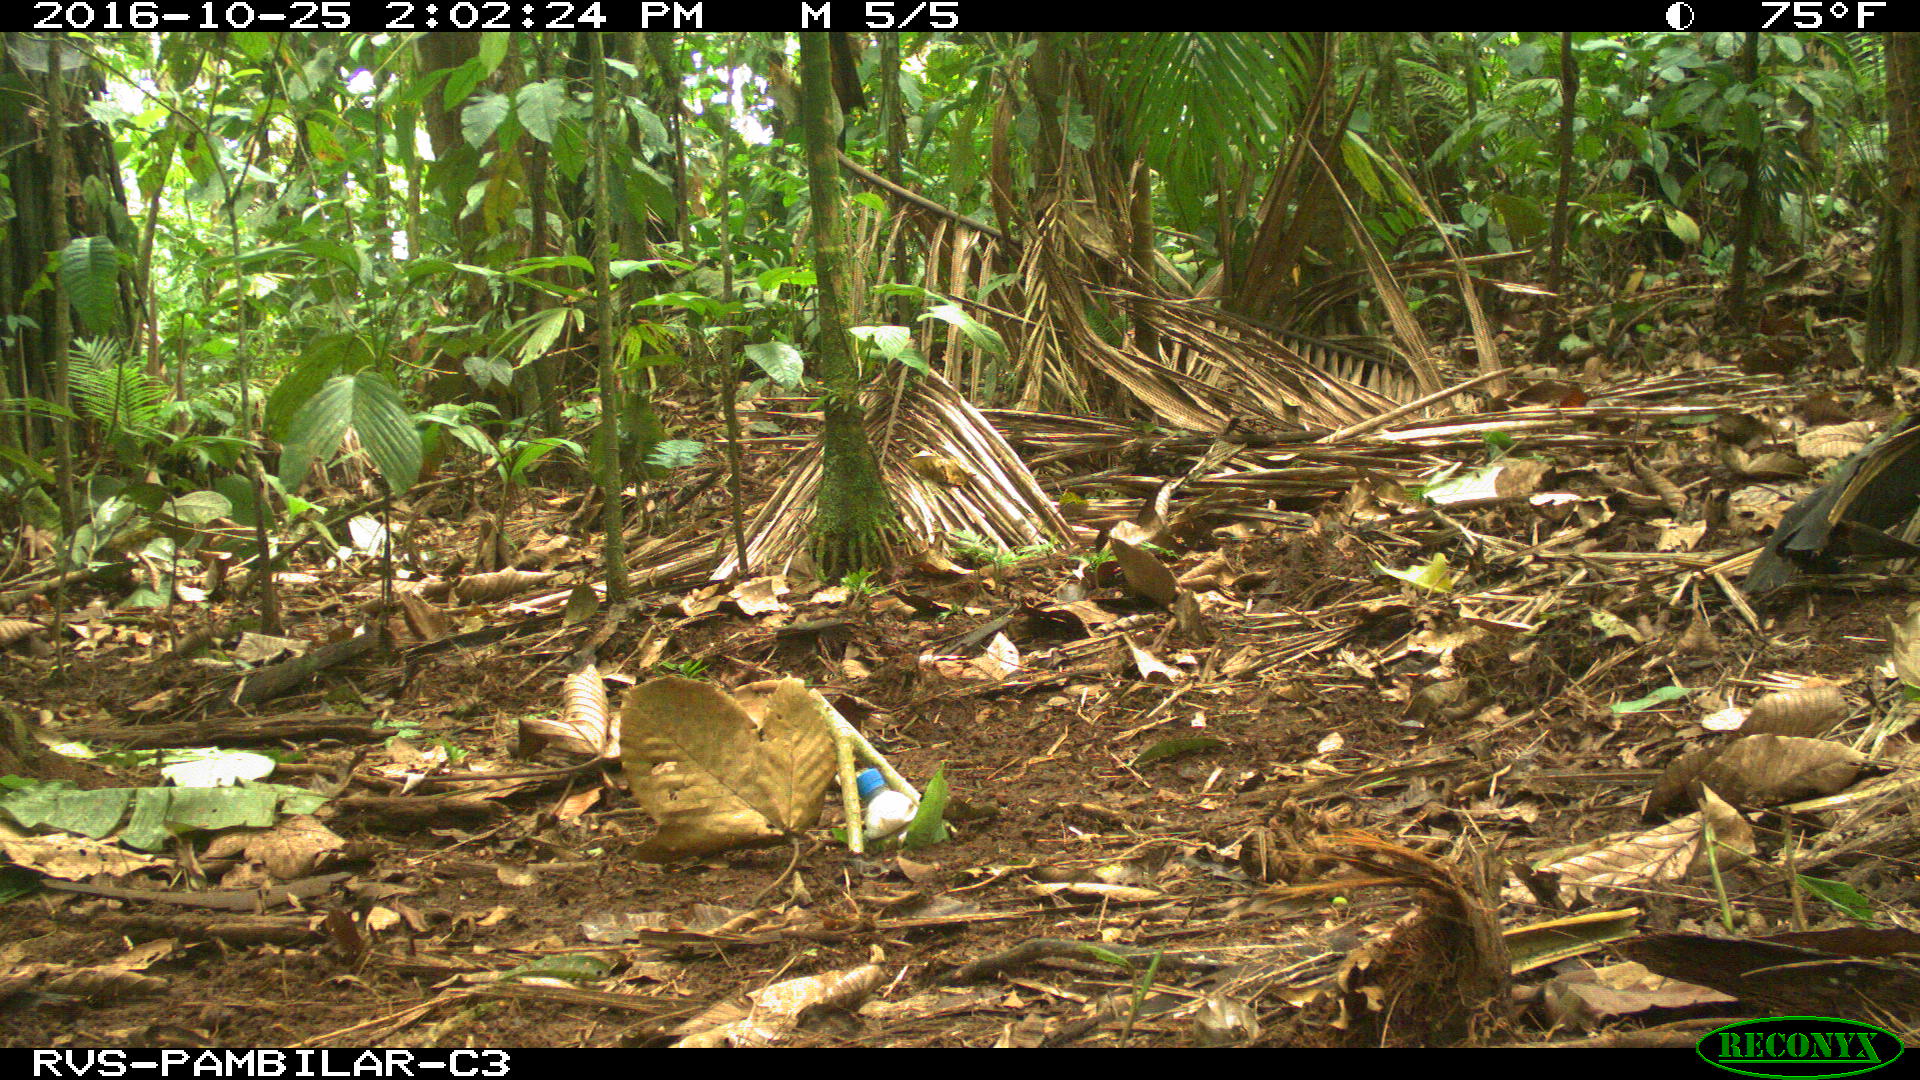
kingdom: Animalia
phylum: Chordata
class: Mammalia
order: Rodentia
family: Dasyproctidae
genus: Dasyprocta
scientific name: Dasyprocta punctata
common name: Central american agouti
